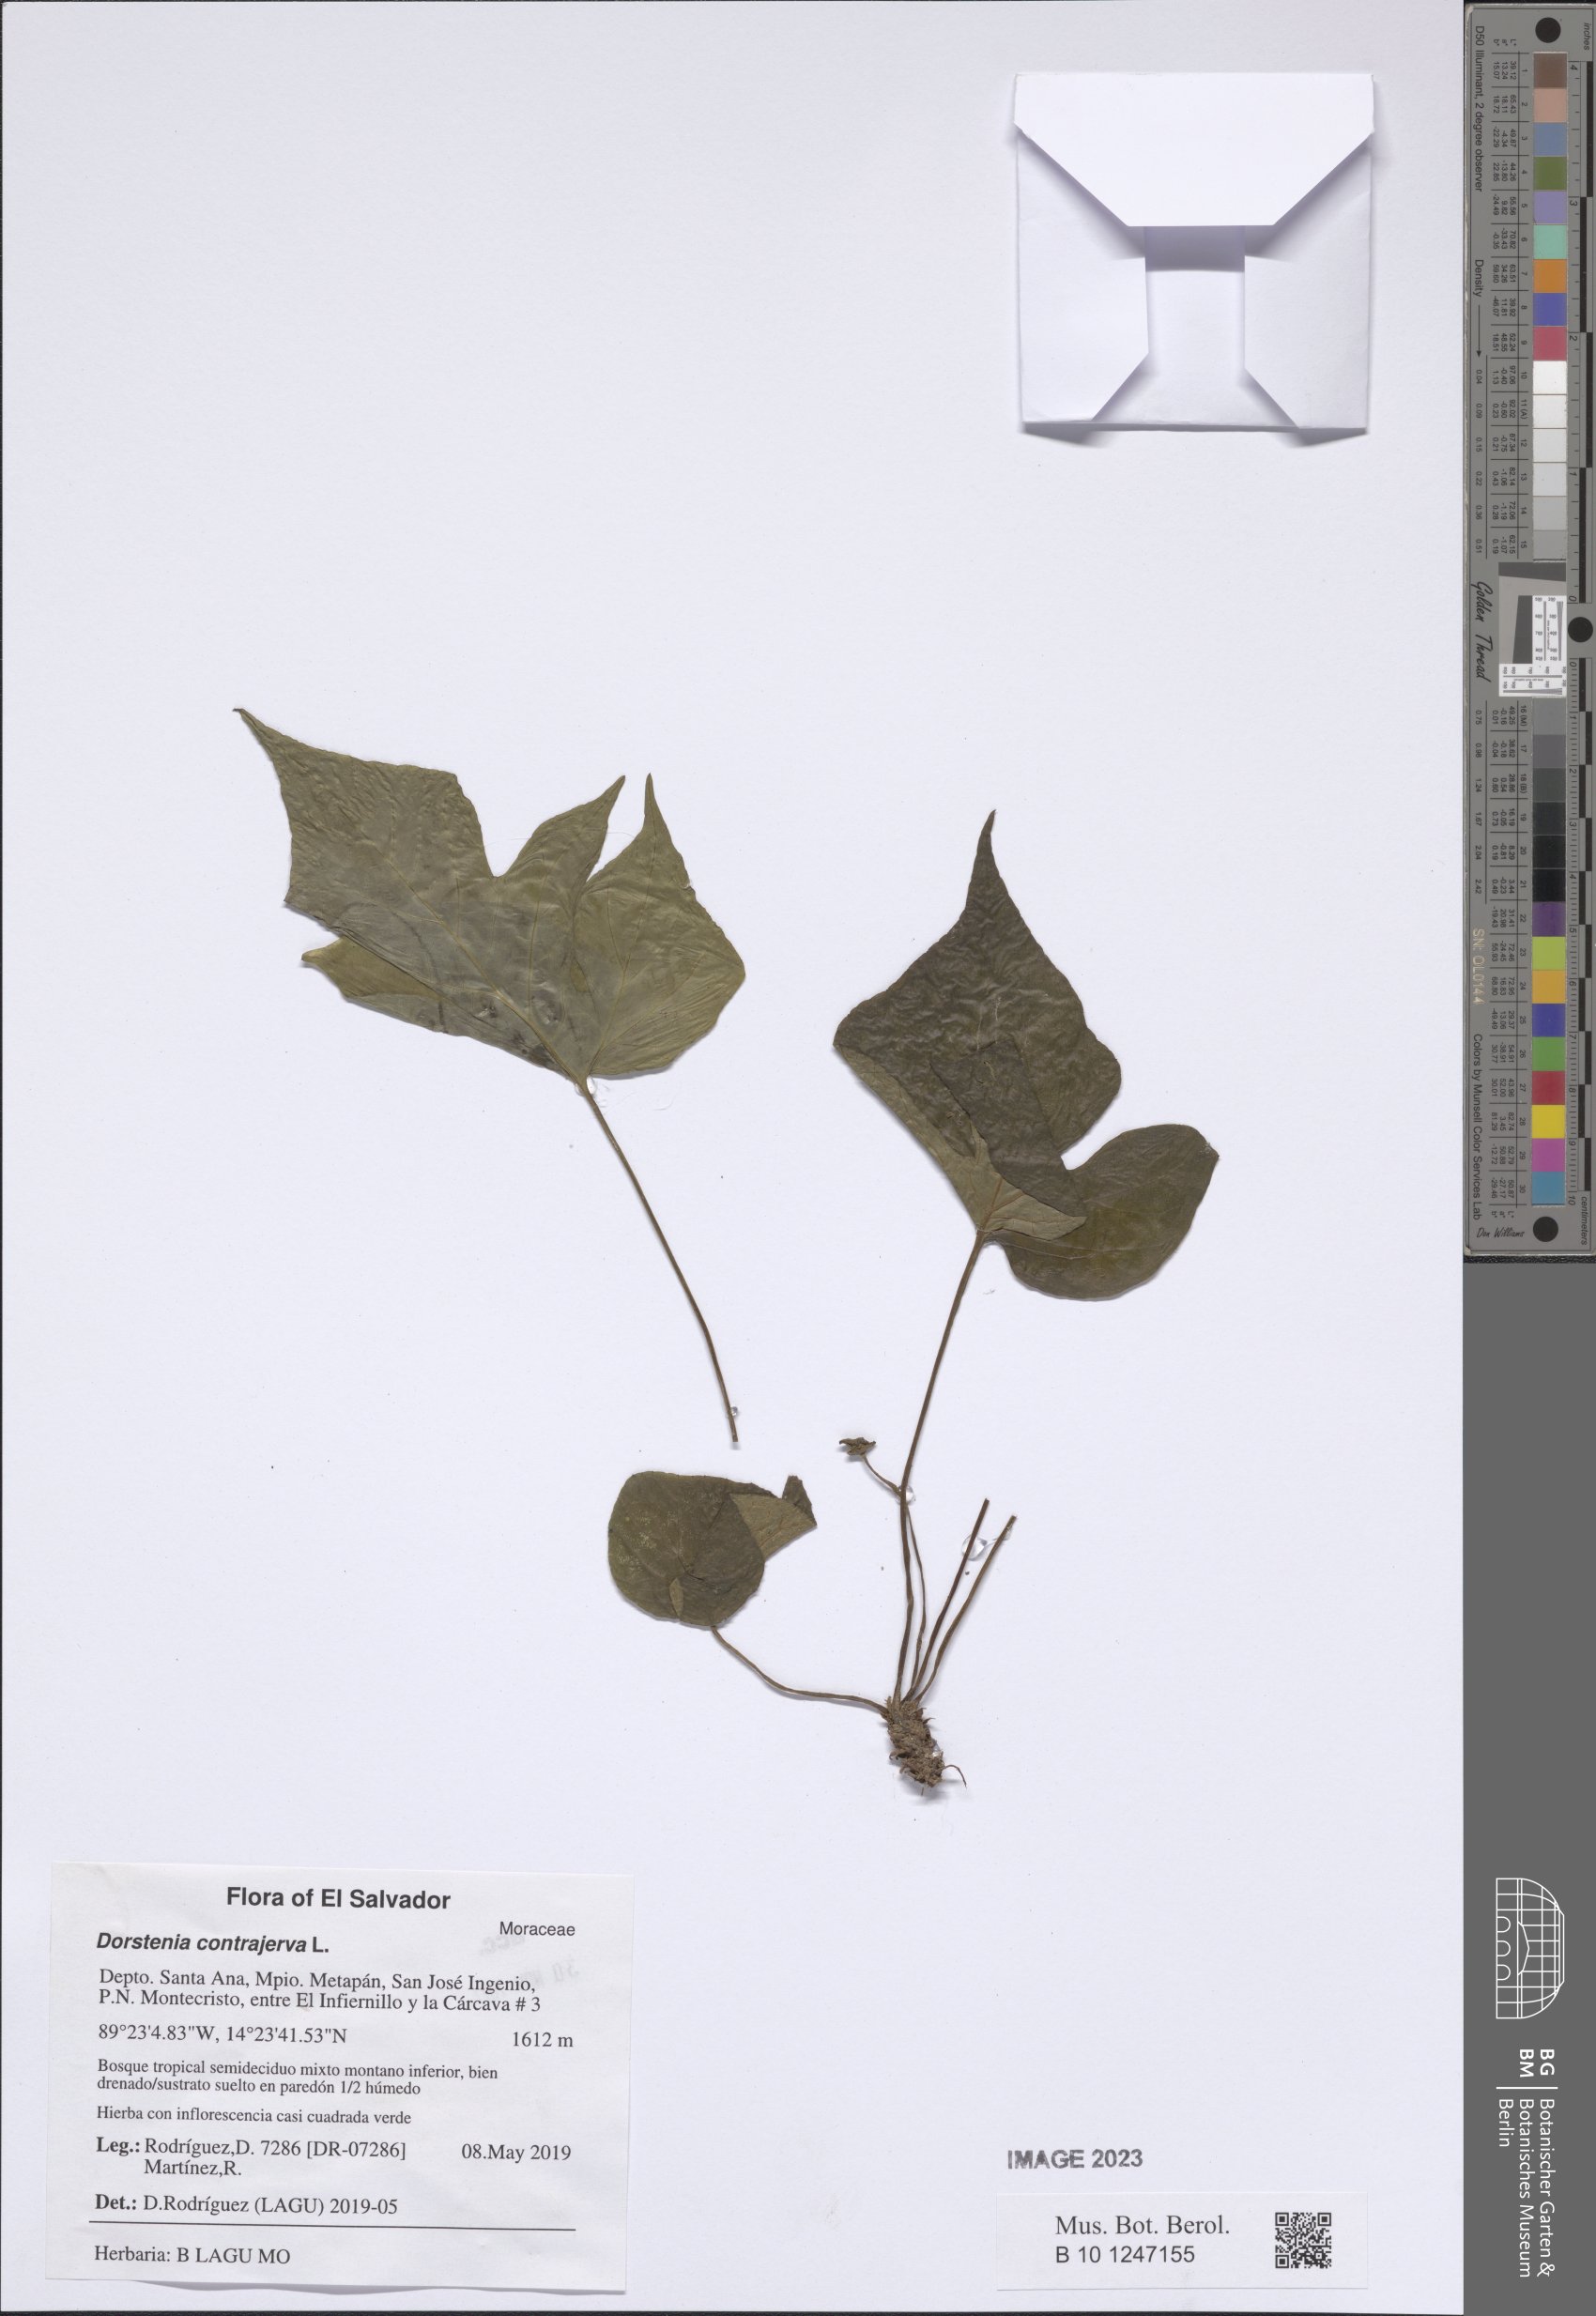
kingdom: Plantae
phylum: Tracheophyta
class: Magnoliopsida
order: Rosales
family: Moraceae
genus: Dorstenia
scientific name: Dorstenia contrajerva
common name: Tusilla
